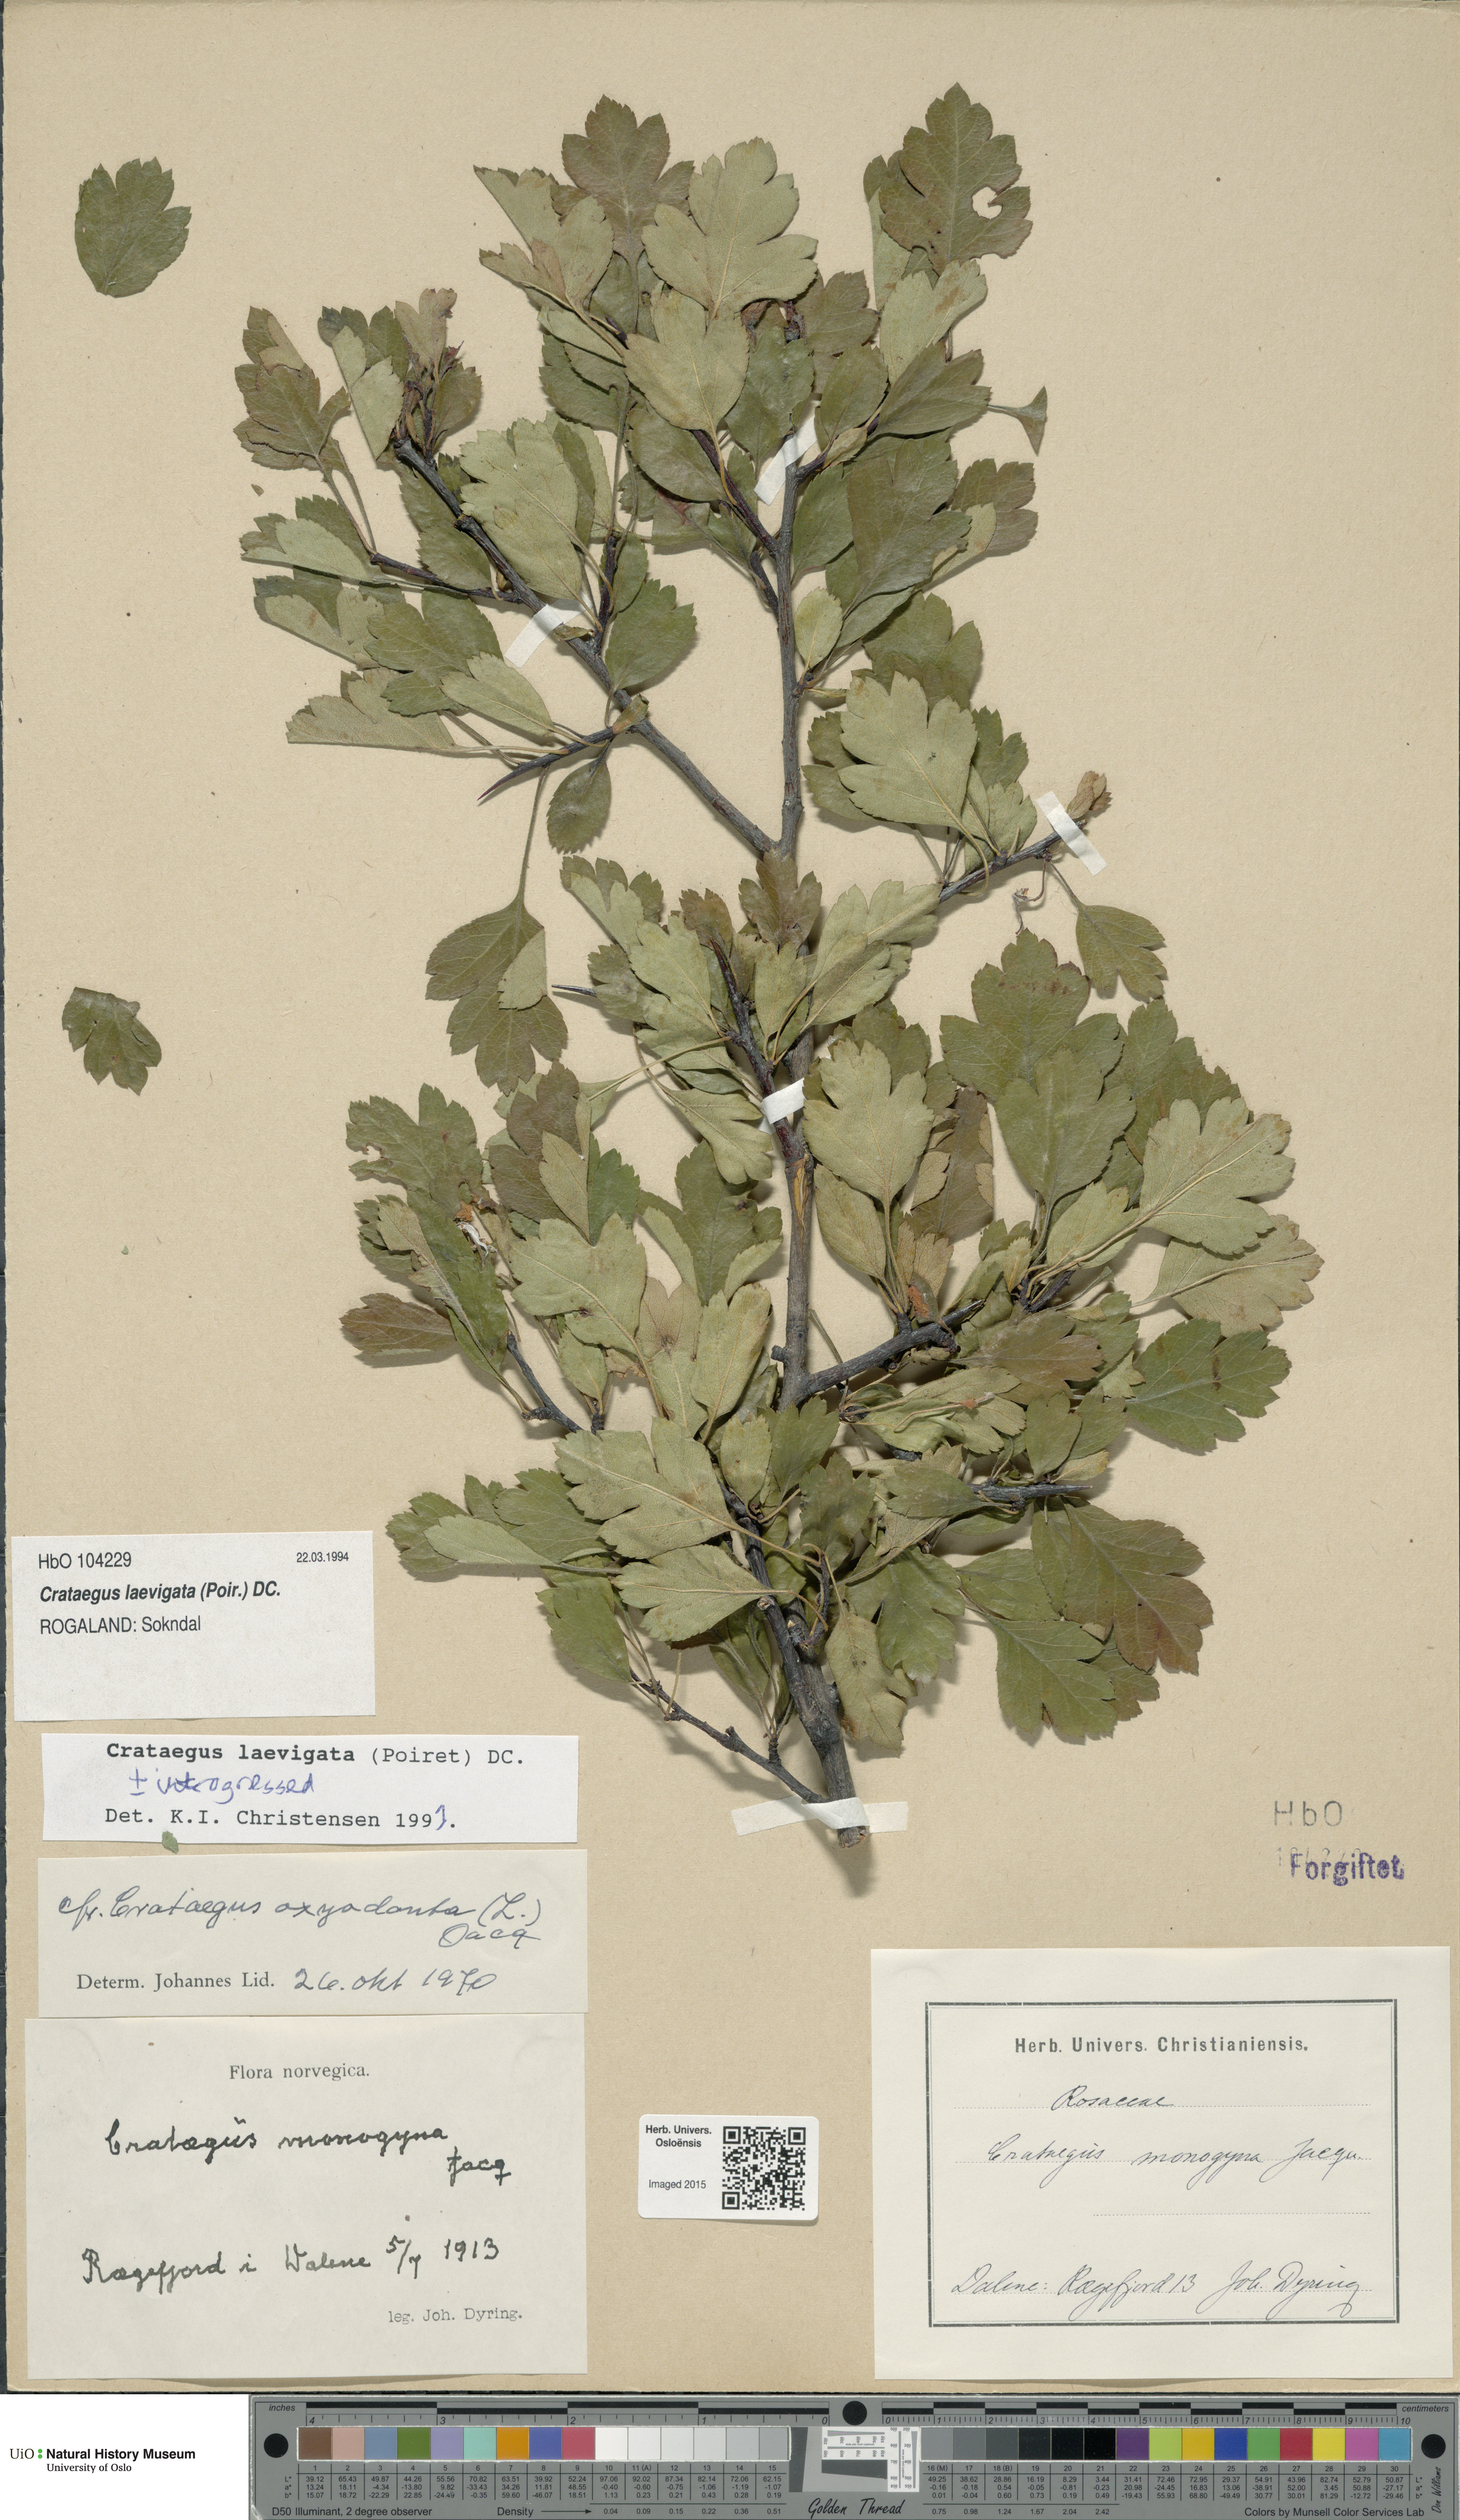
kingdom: Plantae
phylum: Tracheophyta
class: Magnoliopsida
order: Rosales
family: Rosaceae
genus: Crataegus
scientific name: Crataegus laevigata
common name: Midland hawthorn
